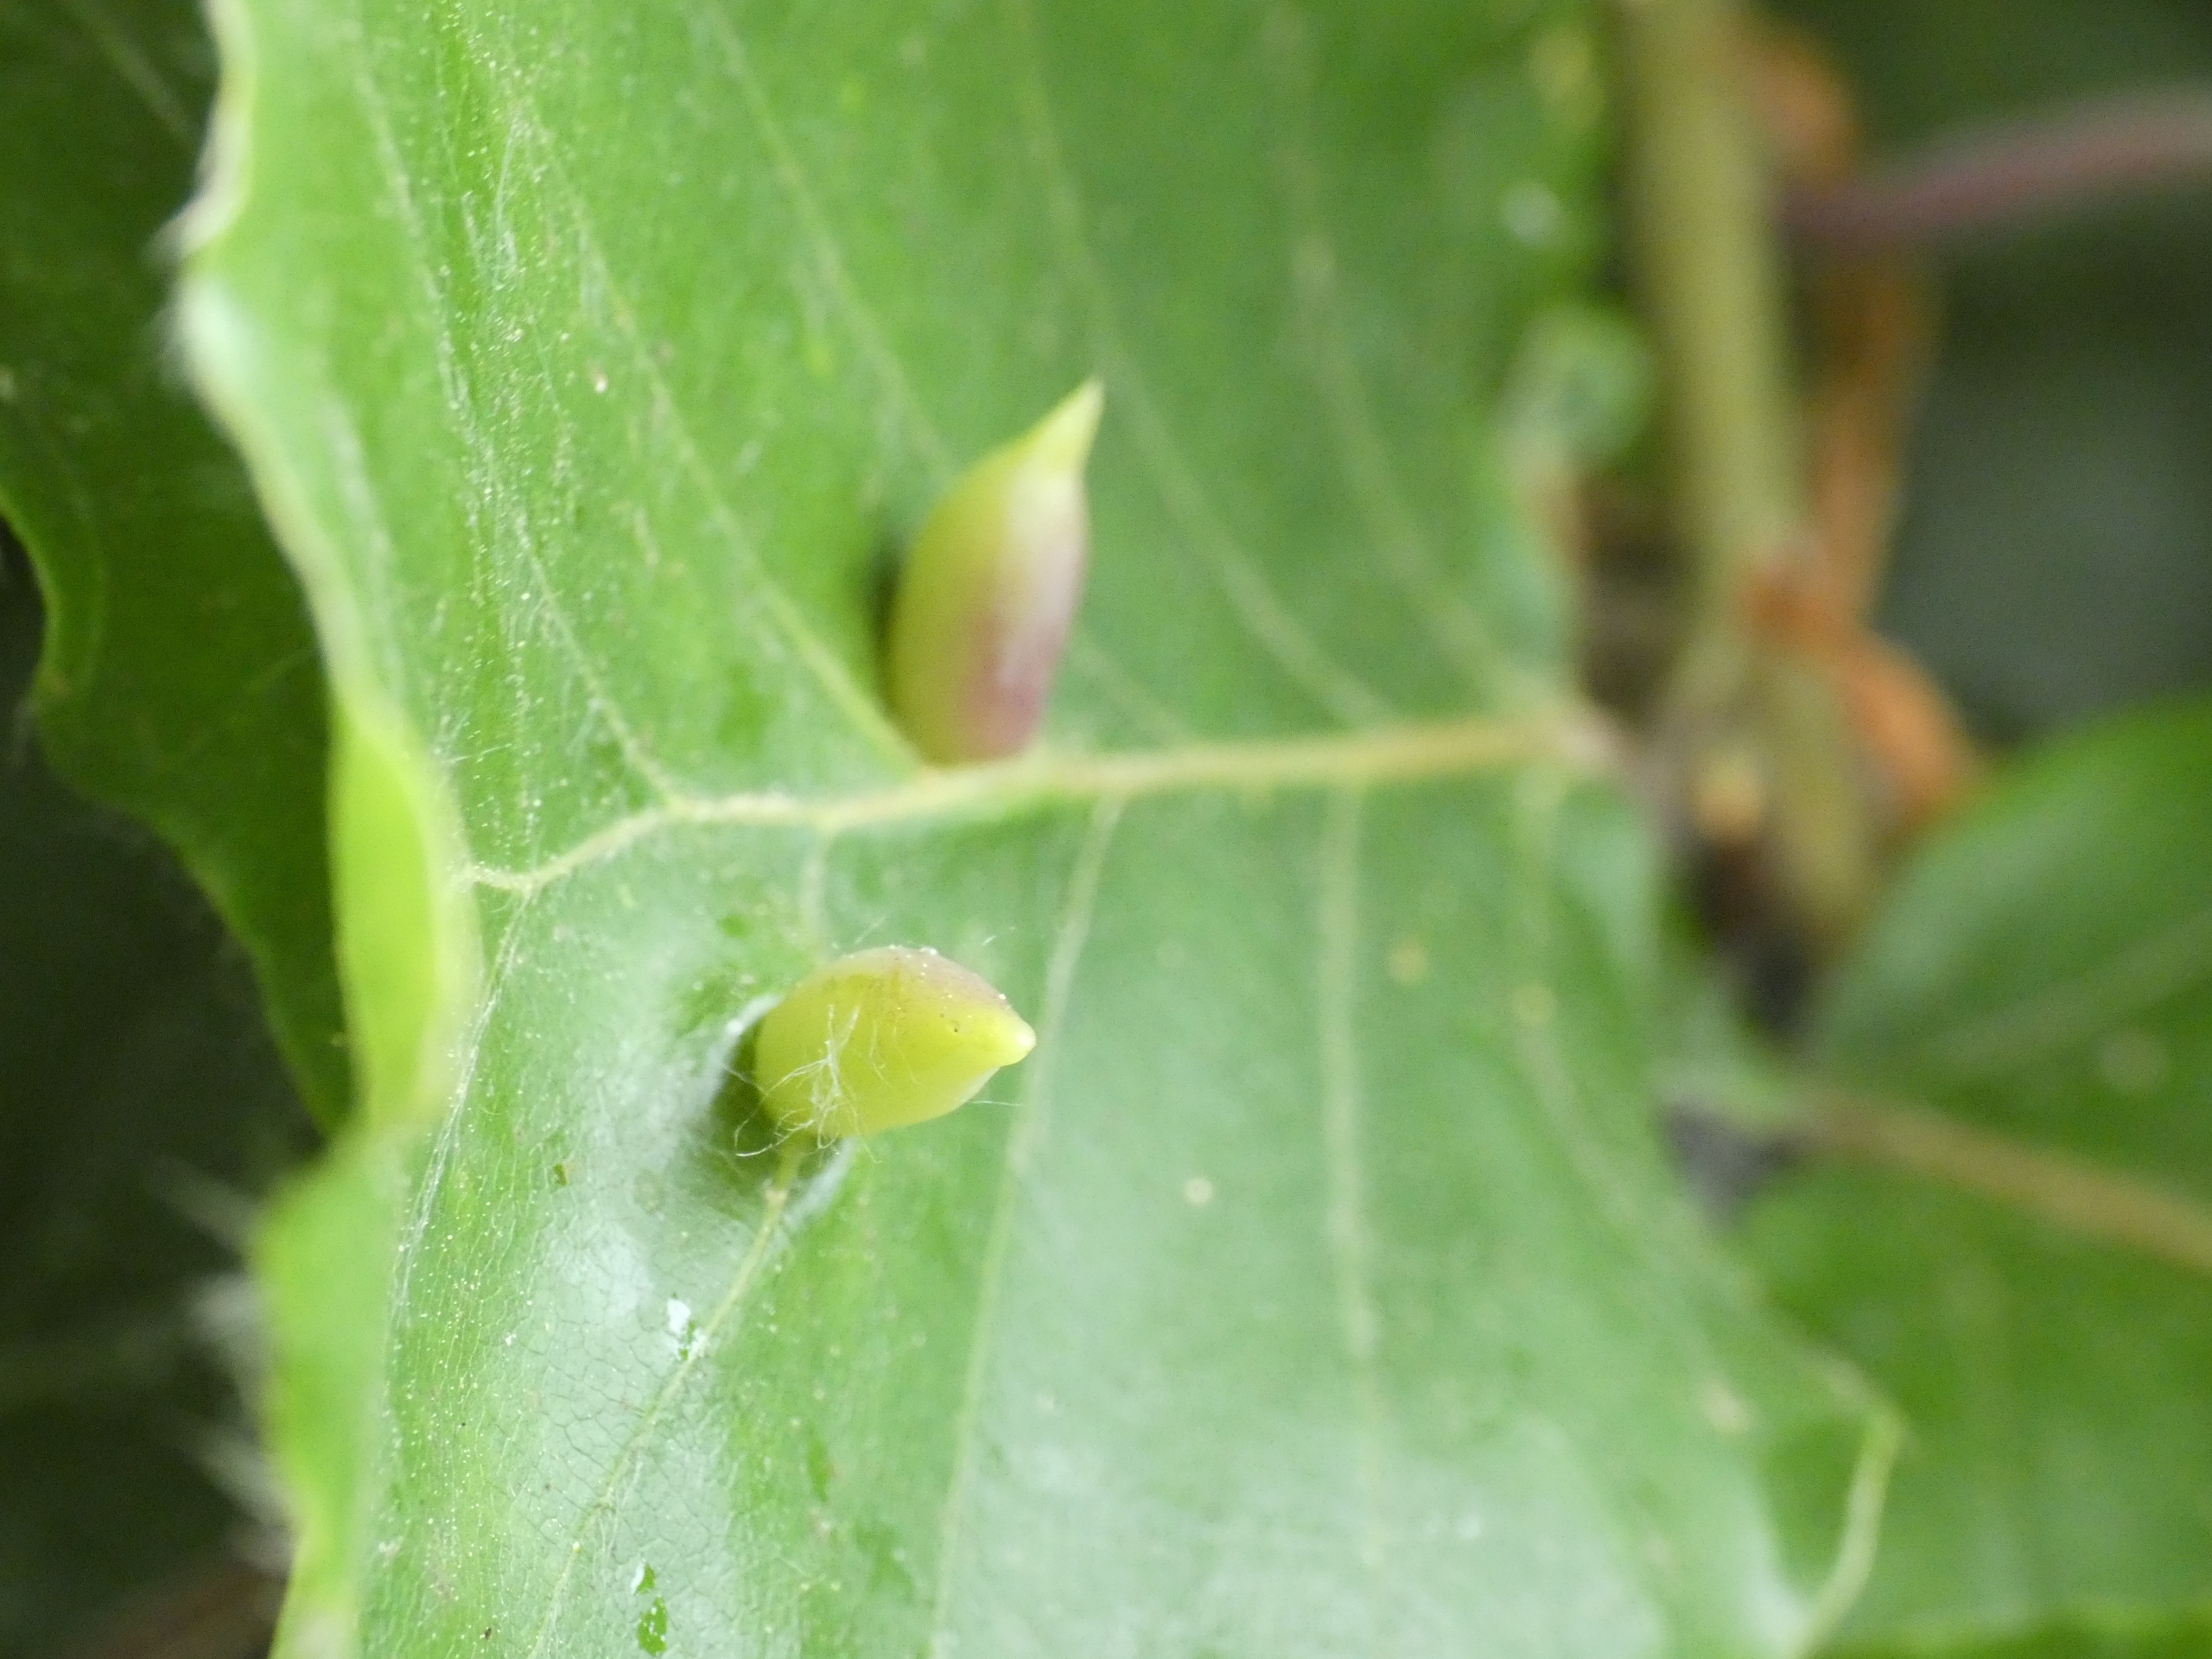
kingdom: Animalia
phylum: Arthropoda
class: Insecta
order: Diptera
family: Cecidomyiidae
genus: Mikiola
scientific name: Mikiola fagi
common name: Bøgegalmyg
